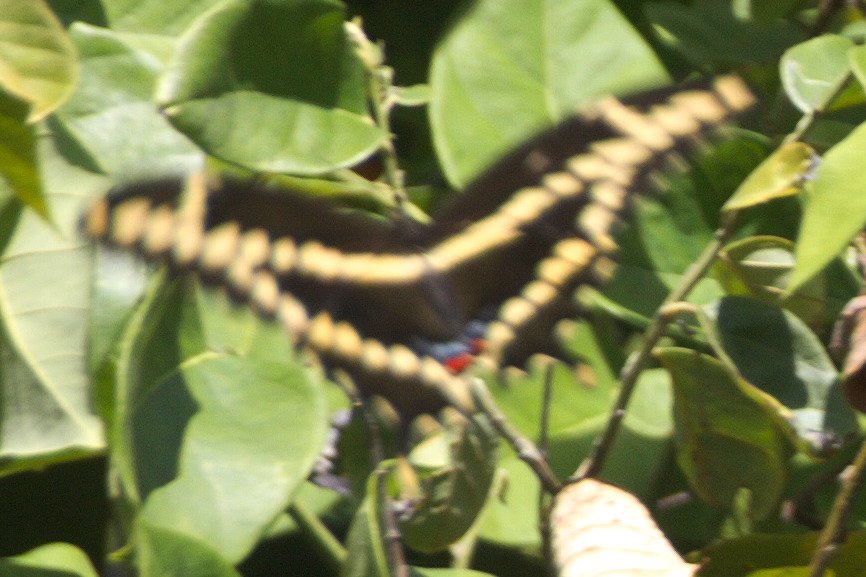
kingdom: Animalia
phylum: Arthropoda
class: Insecta
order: Lepidoptera
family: Papilionidae
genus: Papilio
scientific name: Papilio cresphontes
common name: Eastern Giant Swallowtail
